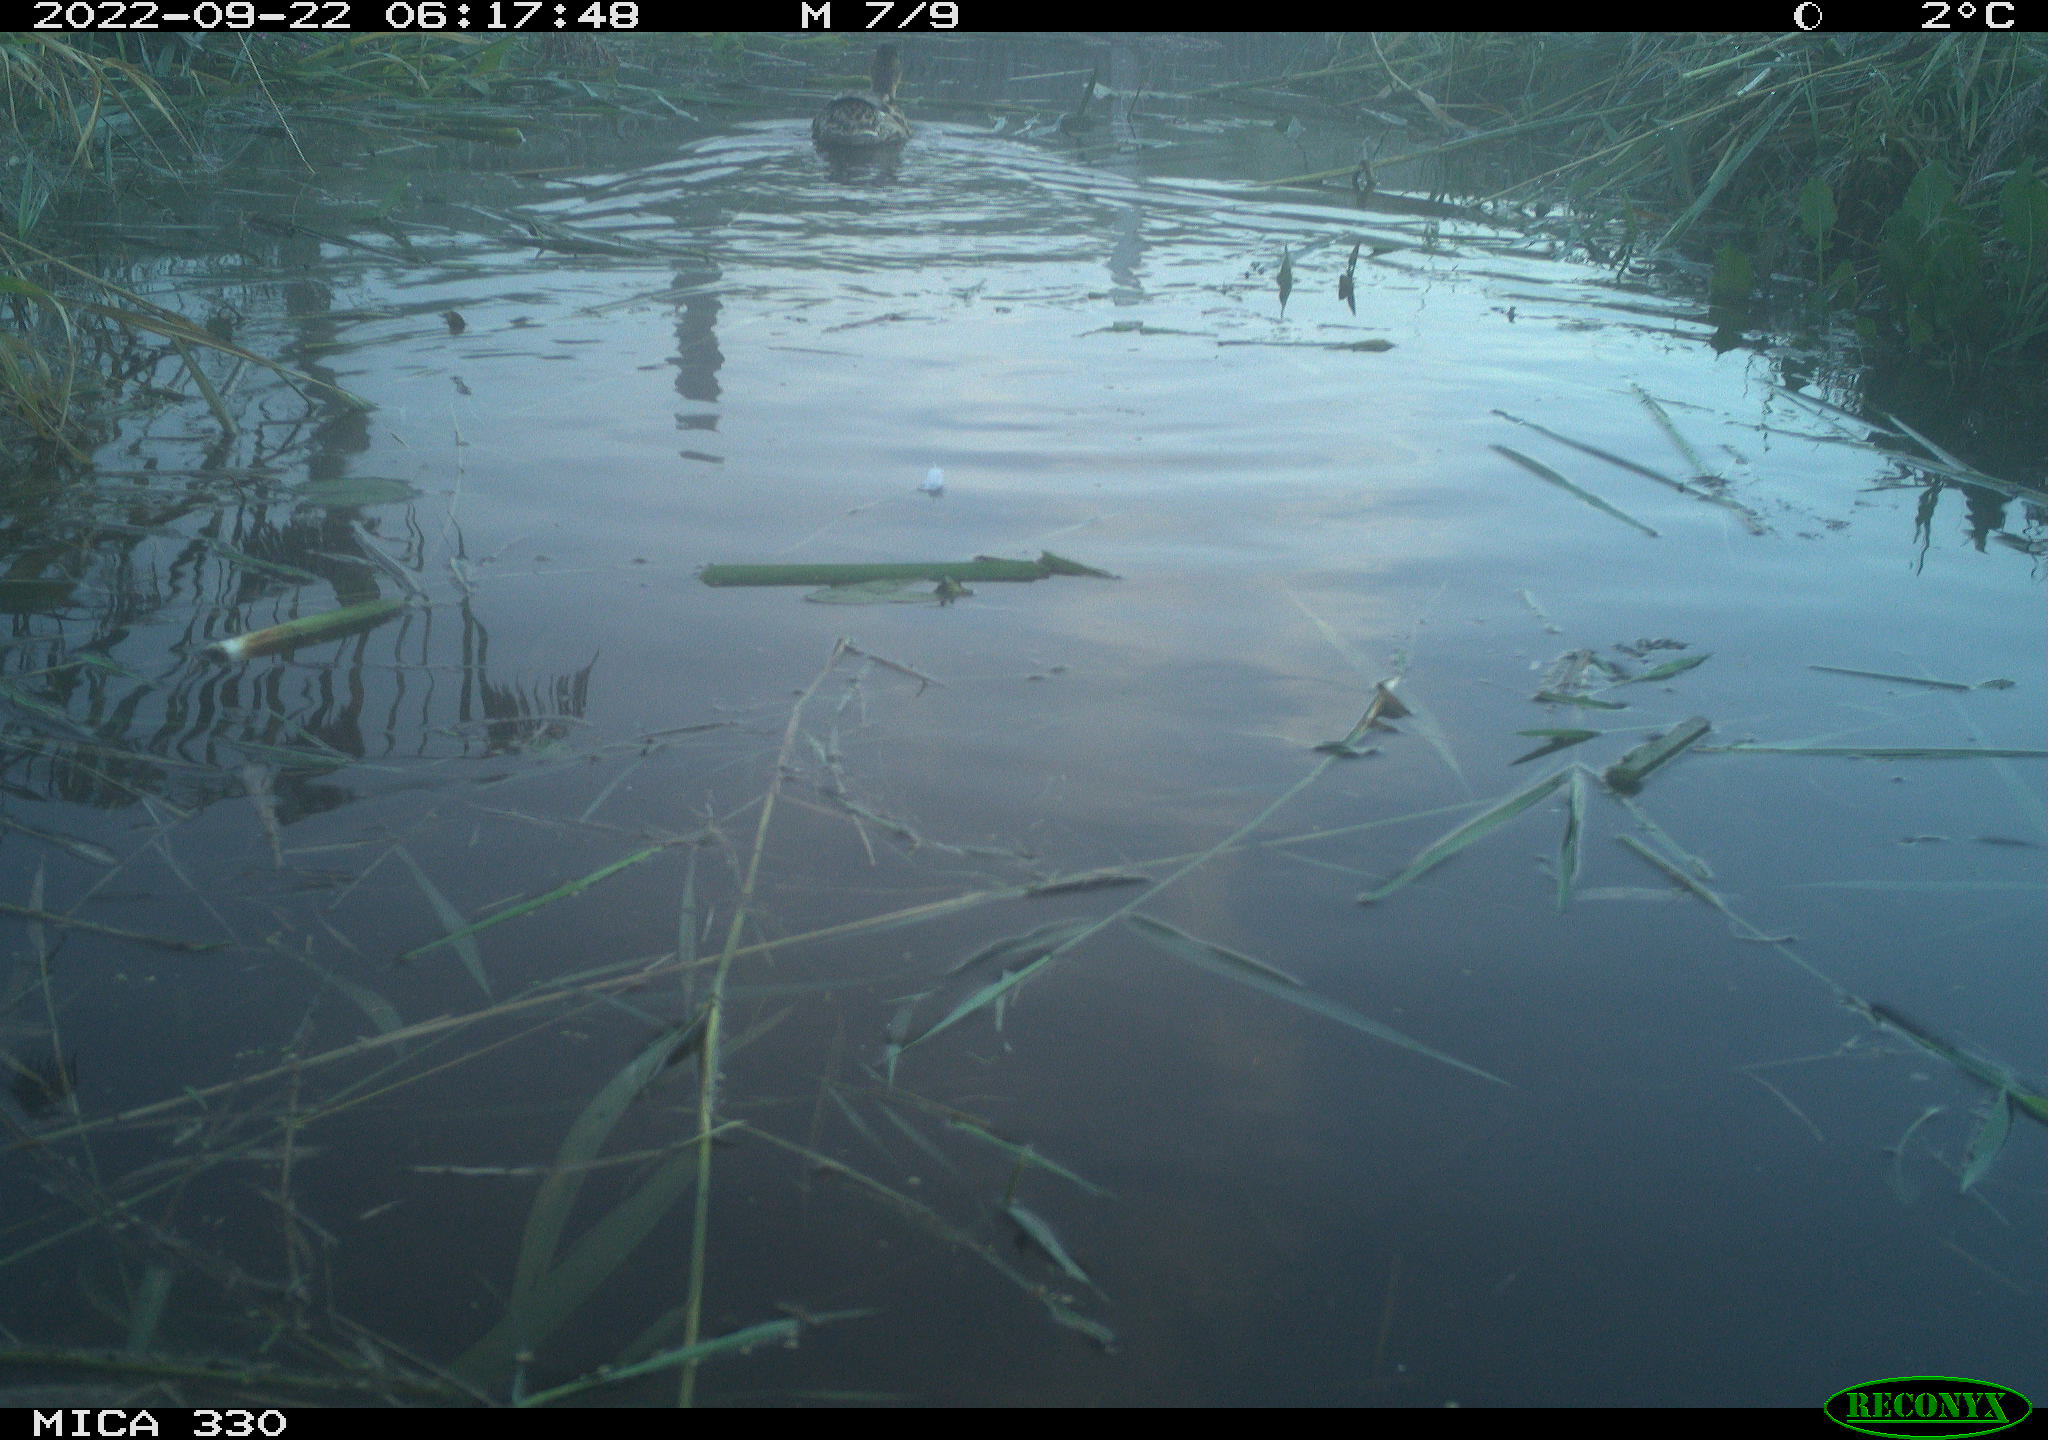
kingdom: Animalia
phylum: Chordata
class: Aves
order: Anseriformes
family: Anatidae
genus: Anas
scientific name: Anas platyrhynchos
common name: Mallard
